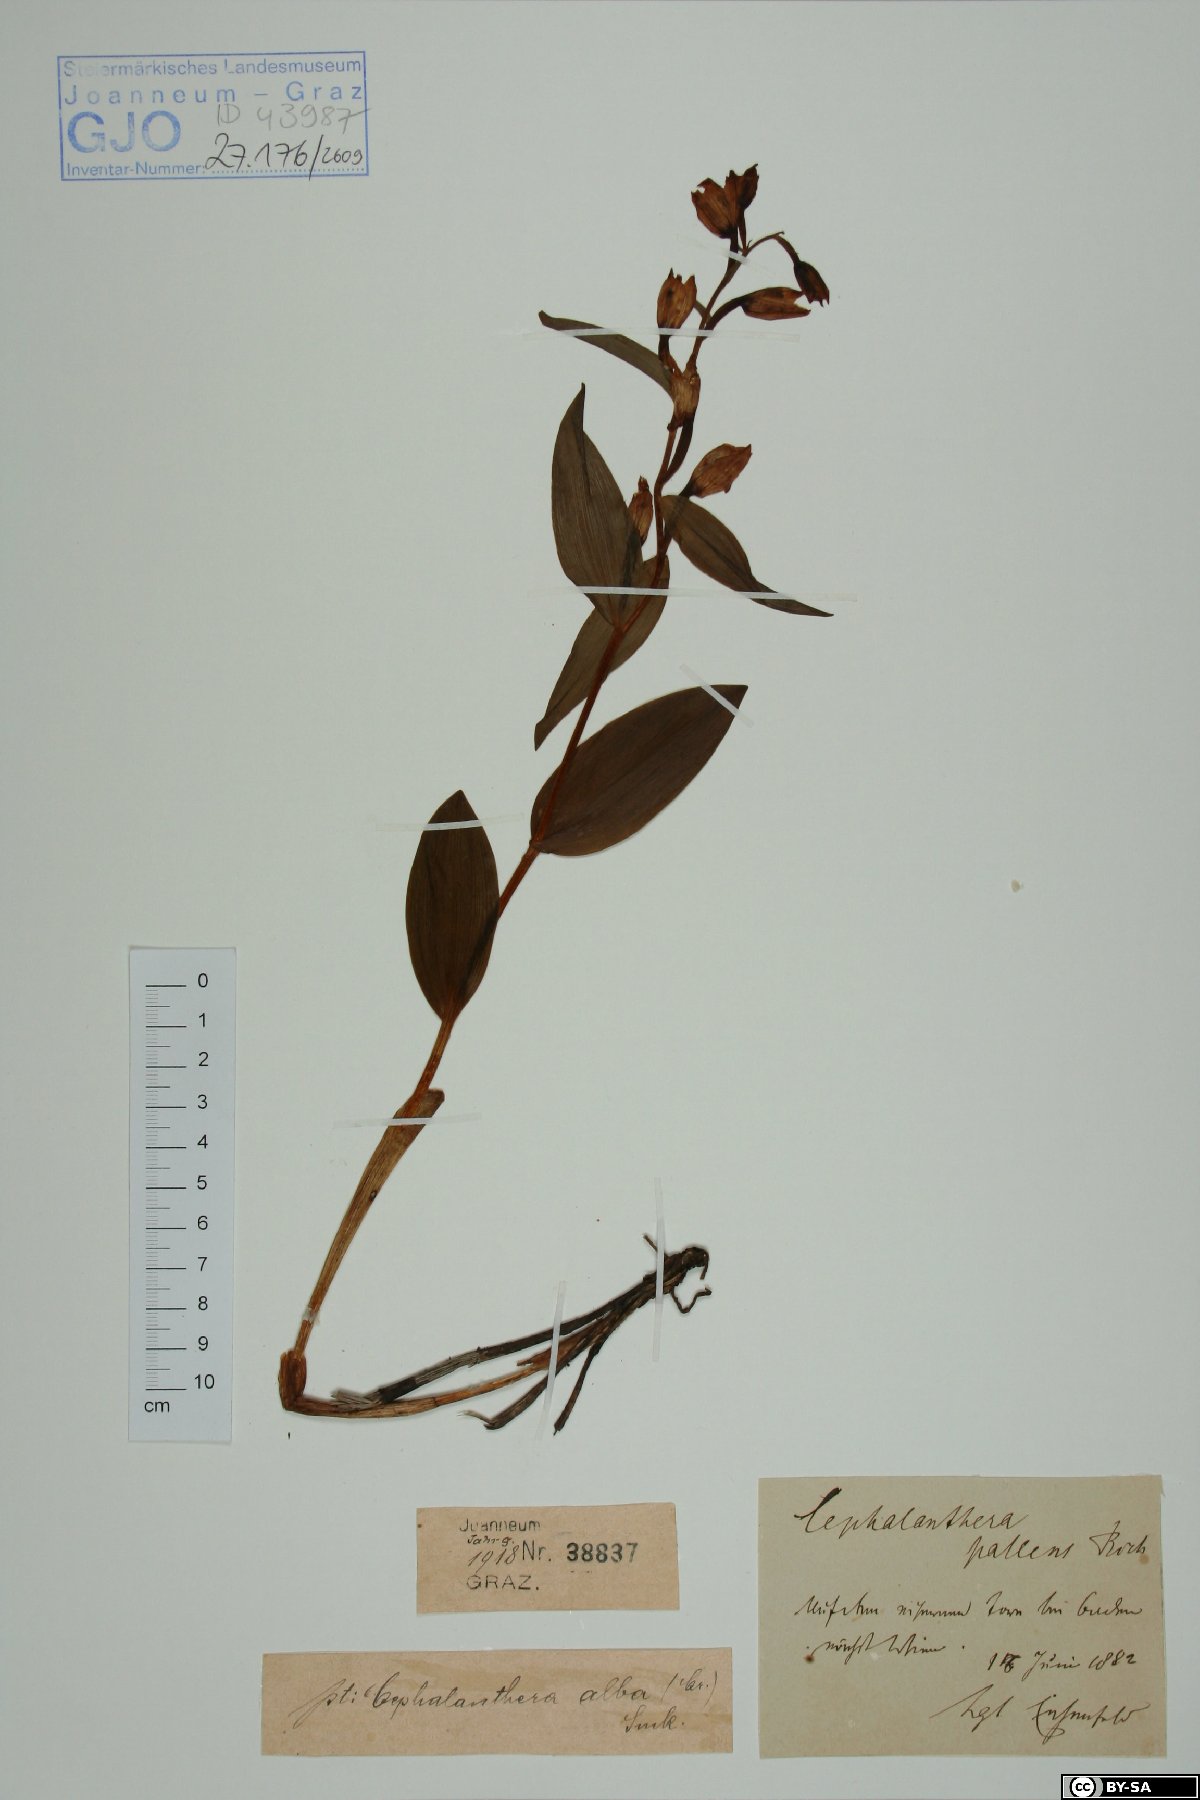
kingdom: Plantae
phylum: Tracheophyta
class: Liliopsida
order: Asparagales
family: Orchidaceae
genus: Cephalanthera
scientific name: Cephalanthera longifolia
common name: Narrow-leaved helleborine
